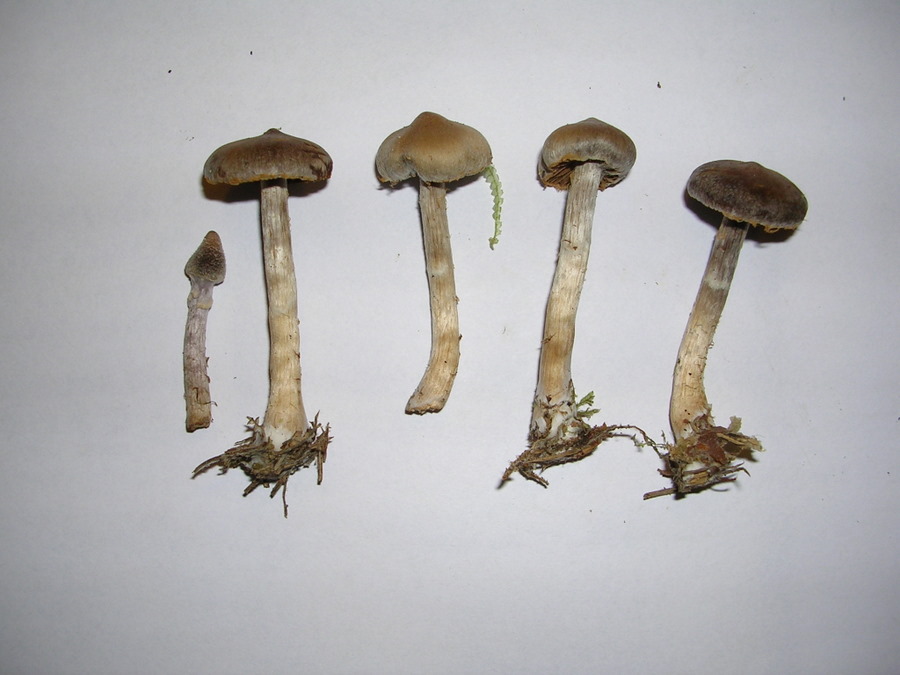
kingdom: Fungi
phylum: Basidiomycota
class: Agaricomycetes
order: Agaricales
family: Cortinariaceae
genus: Cortinarius
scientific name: Cortinarius
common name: pelargonie-slørhat
